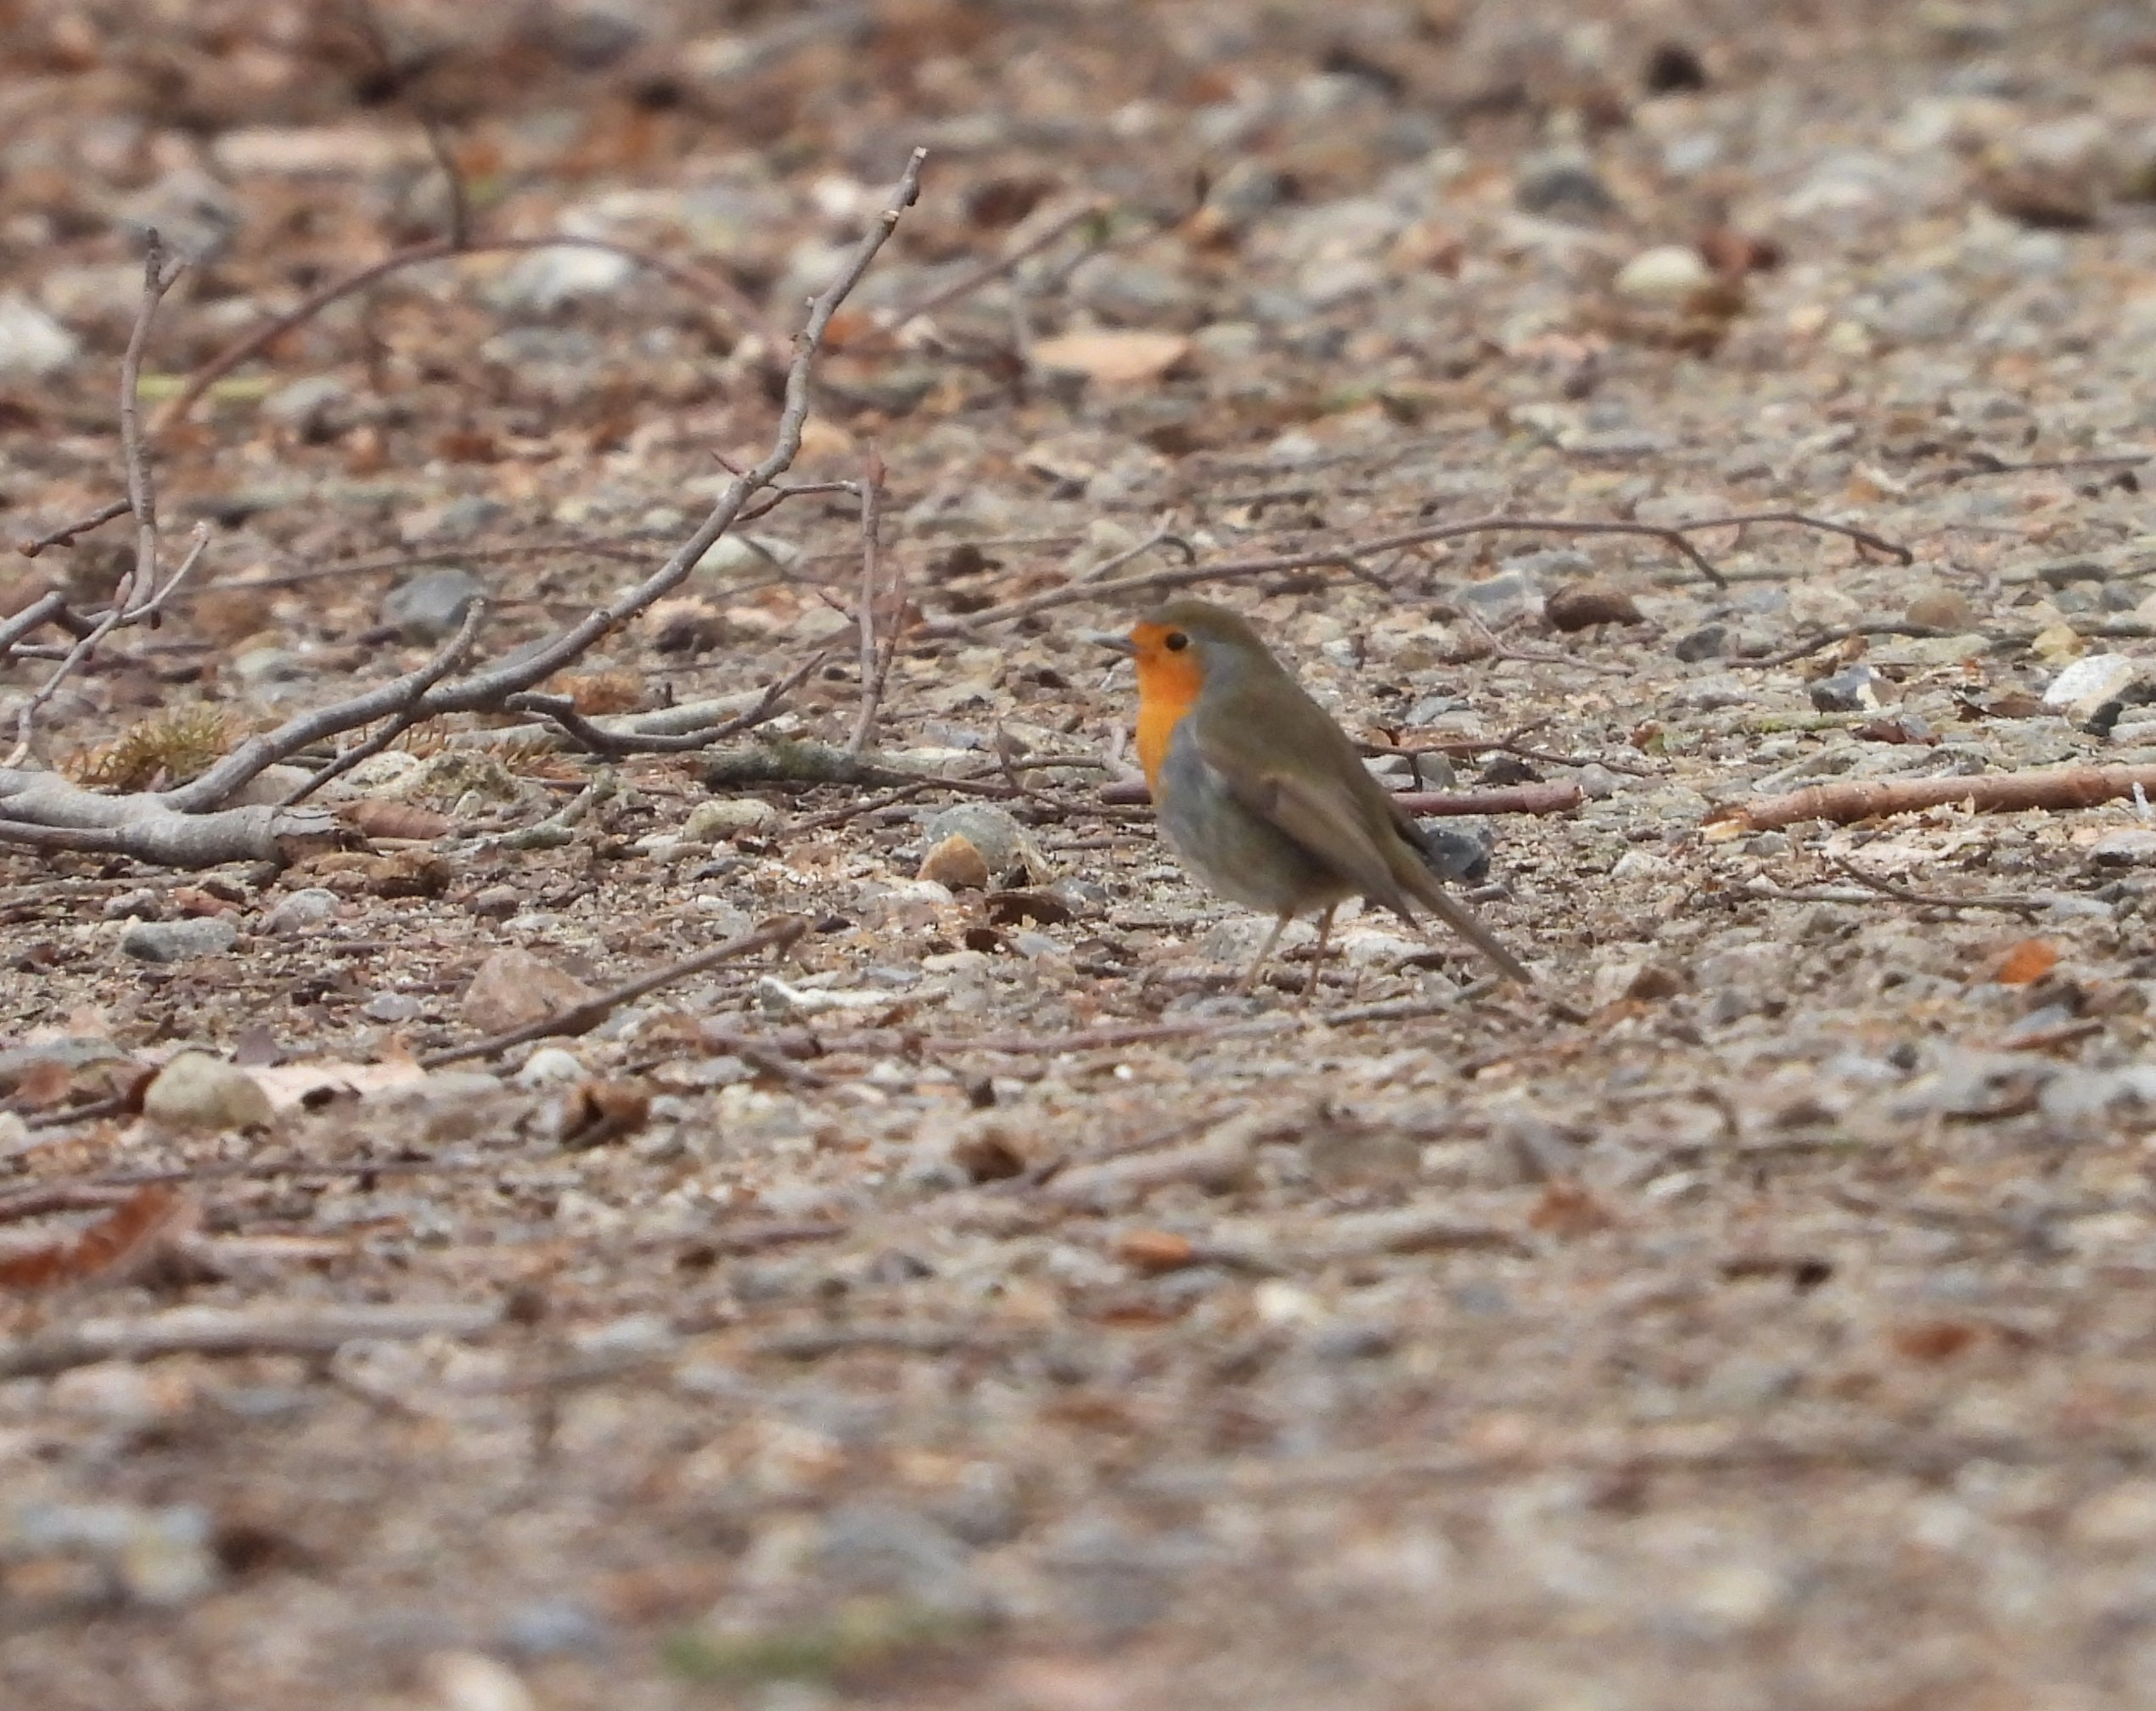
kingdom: Animalia
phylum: Chordata
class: Aves
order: Passeriformes
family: Muscicapidae
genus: Erithacus
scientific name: Erithacus rubecula
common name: Rødhals/rødkælk
